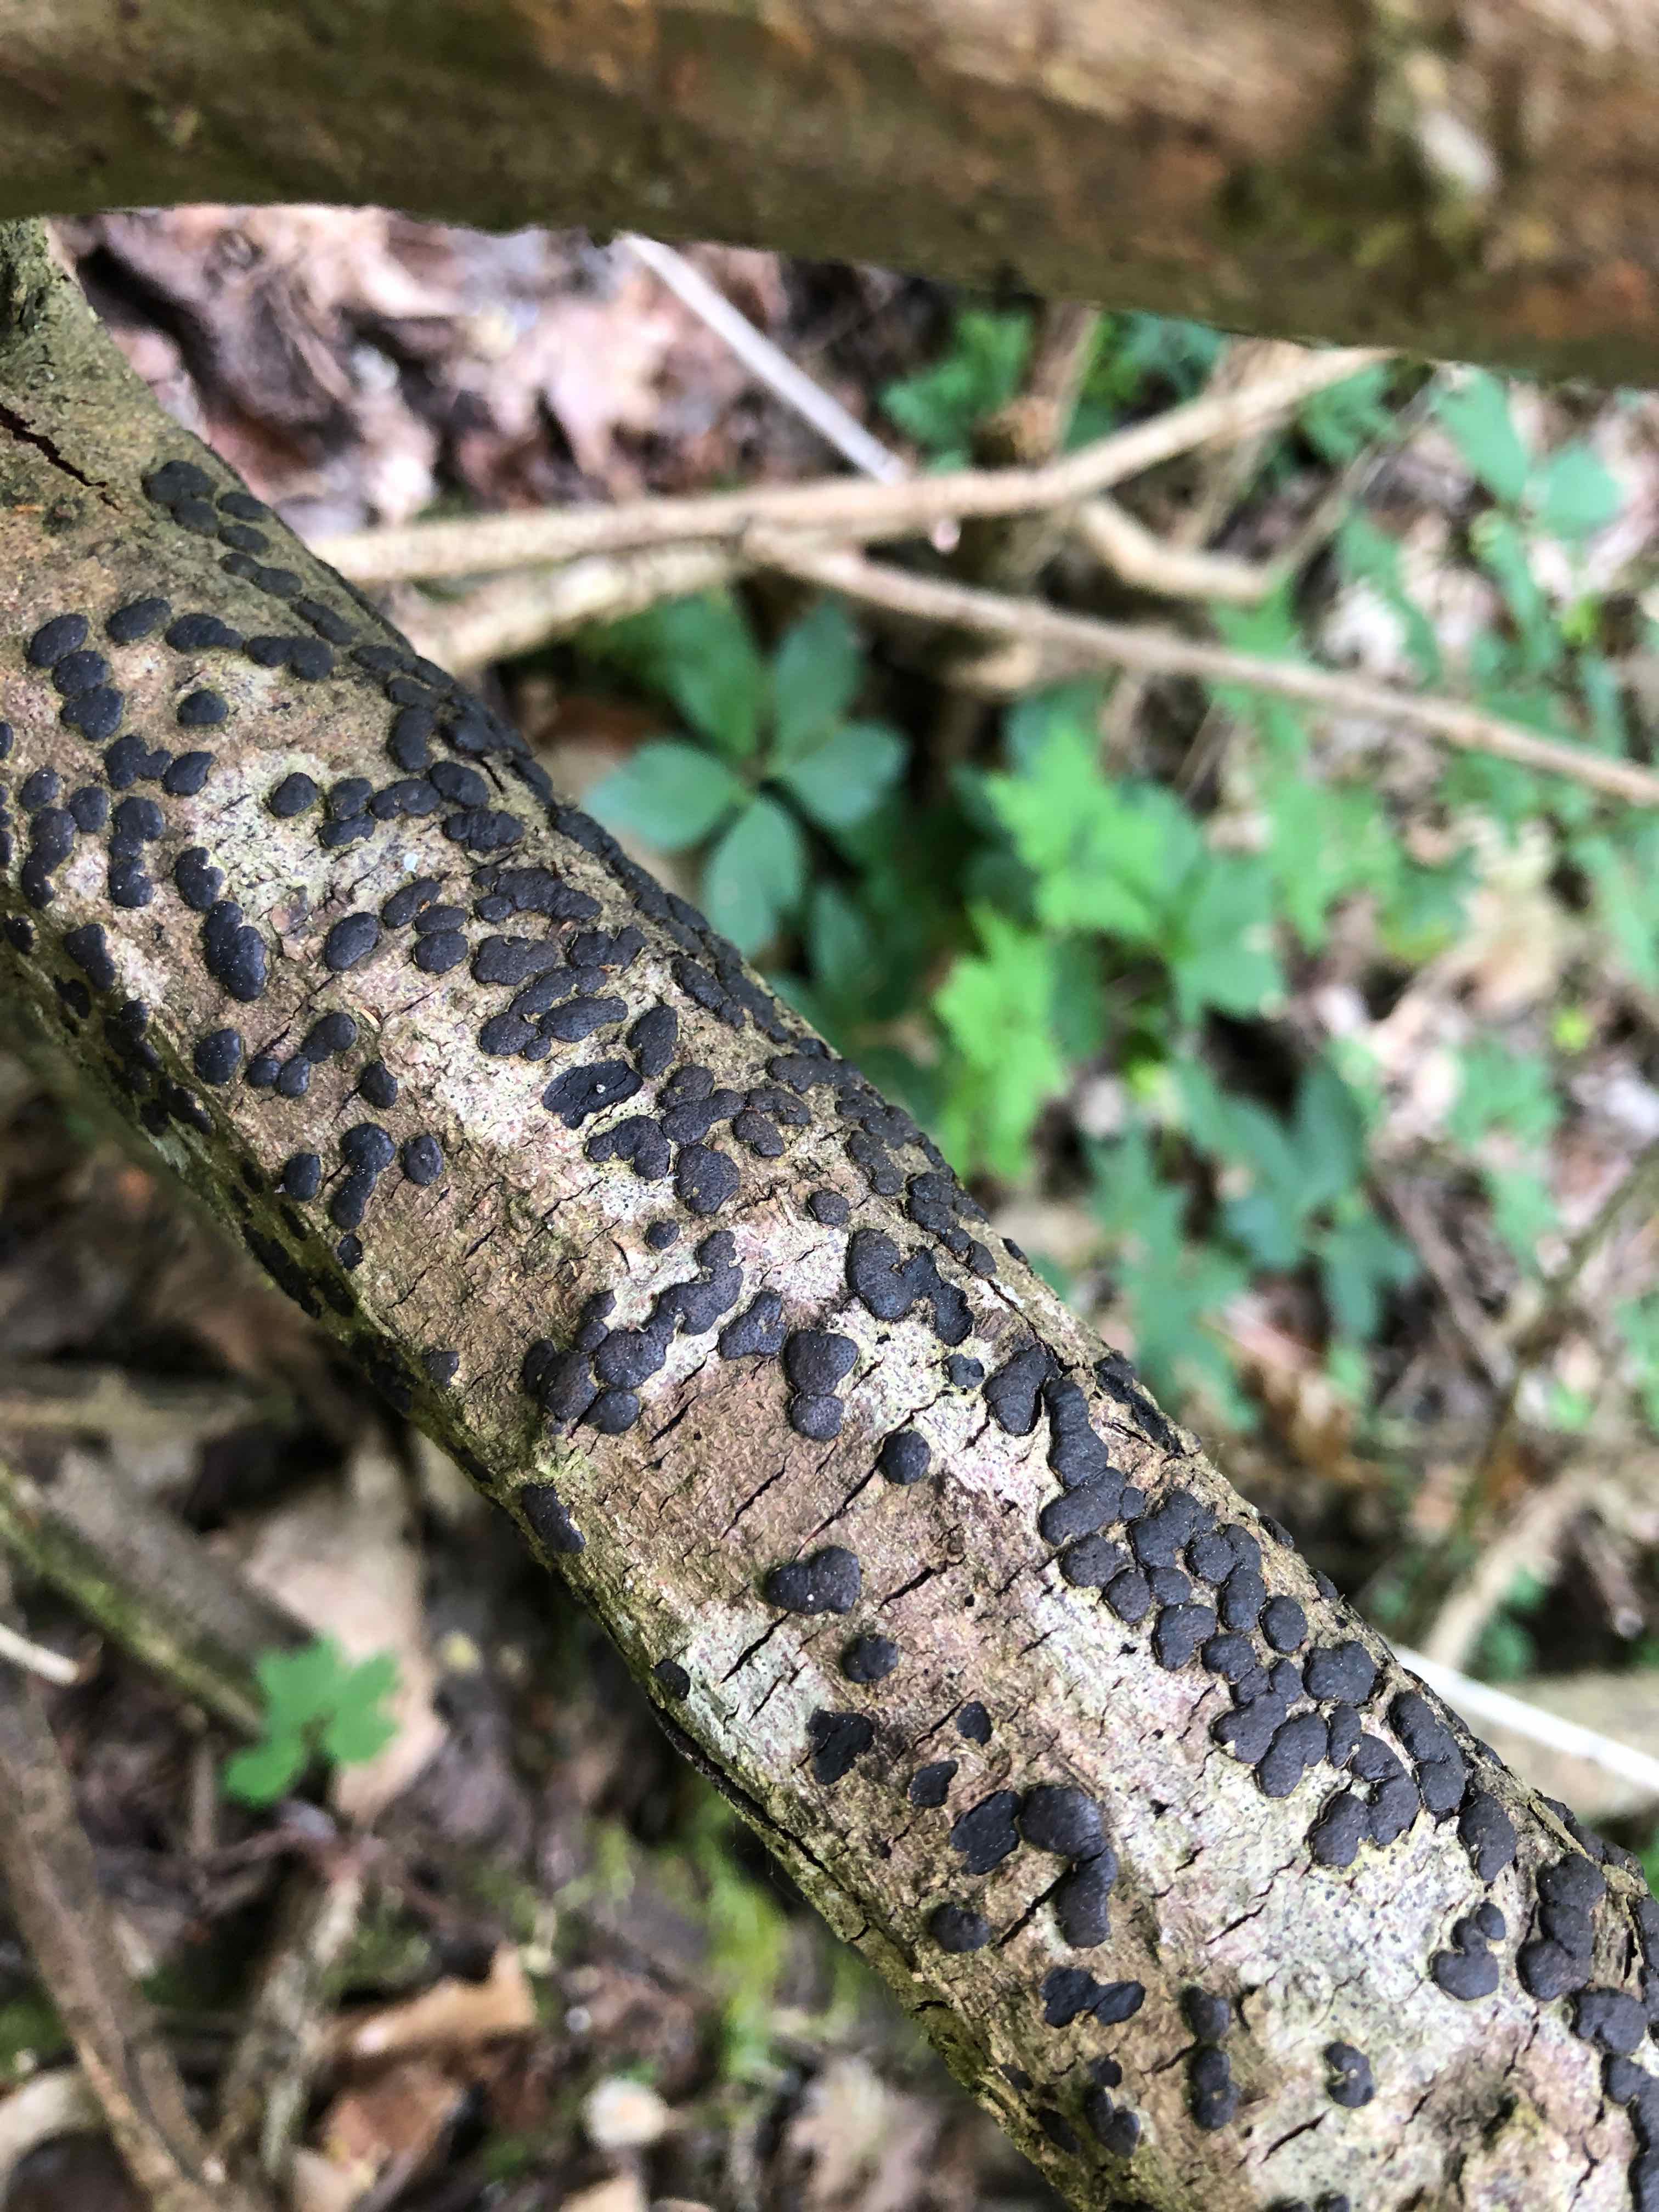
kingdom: Fungi
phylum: Ascomycota
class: Sordariomycetes
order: Xylariales
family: Diatrypaceae
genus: Diatrype
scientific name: Diatrype bullata
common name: pile-kulskorpe
